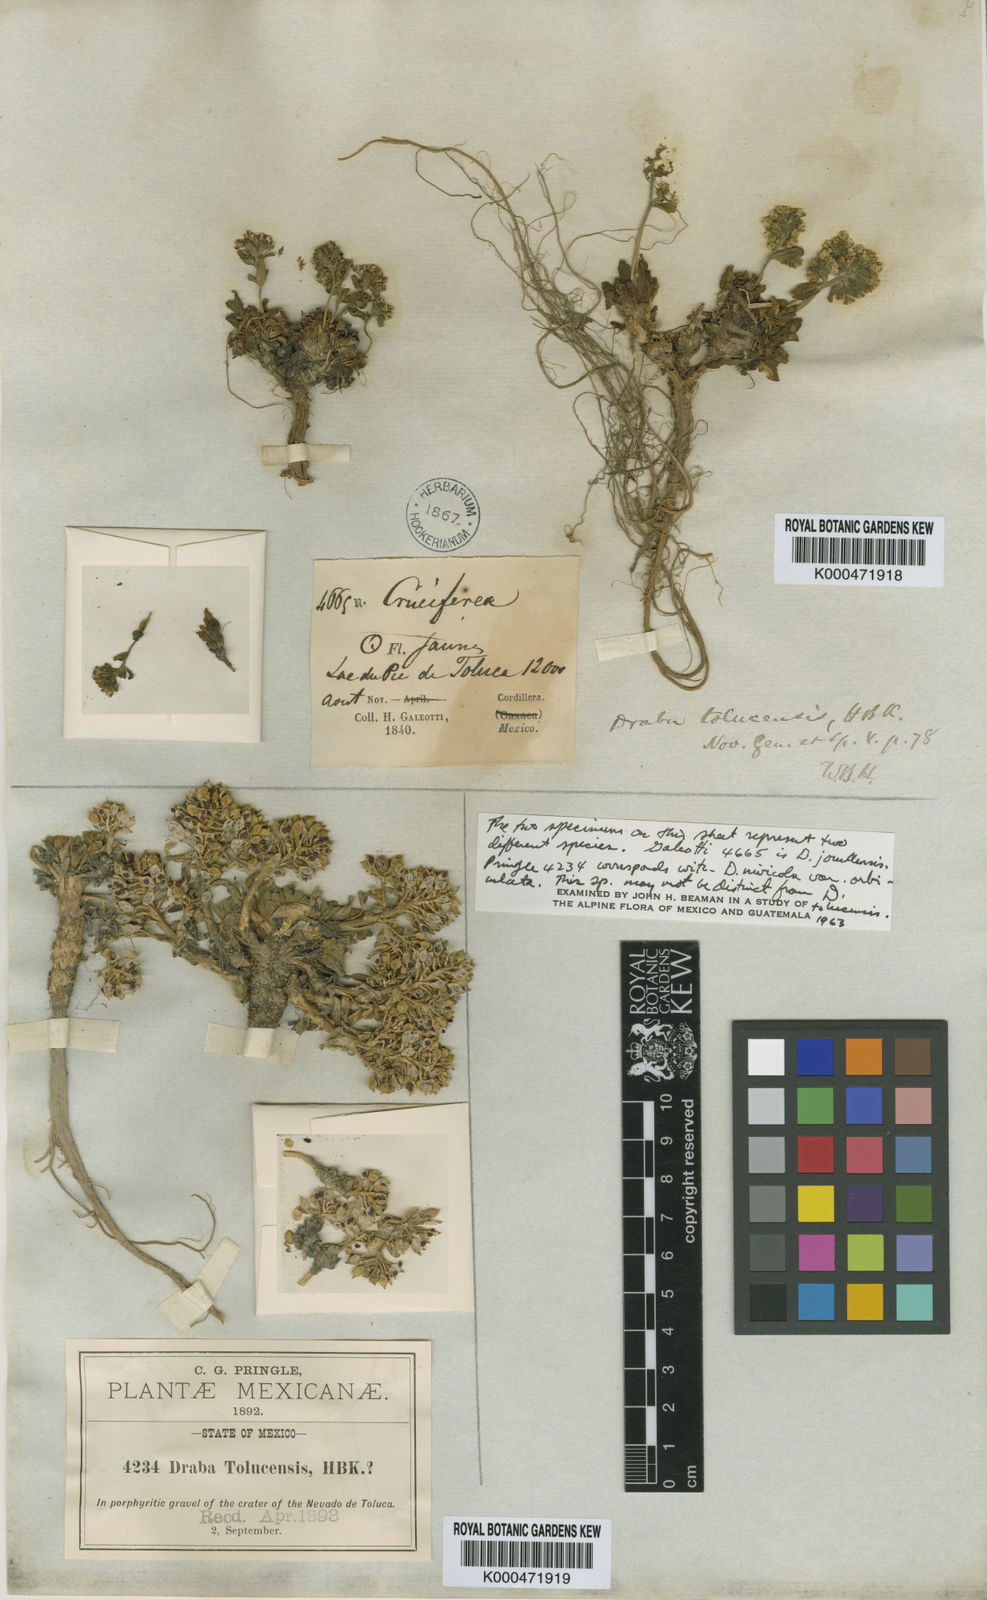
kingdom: Plantae
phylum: Tracheophyta
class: Magnoliopsida
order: Brassicales
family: Brassicaceae
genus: Draba
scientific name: Draba nivicola
